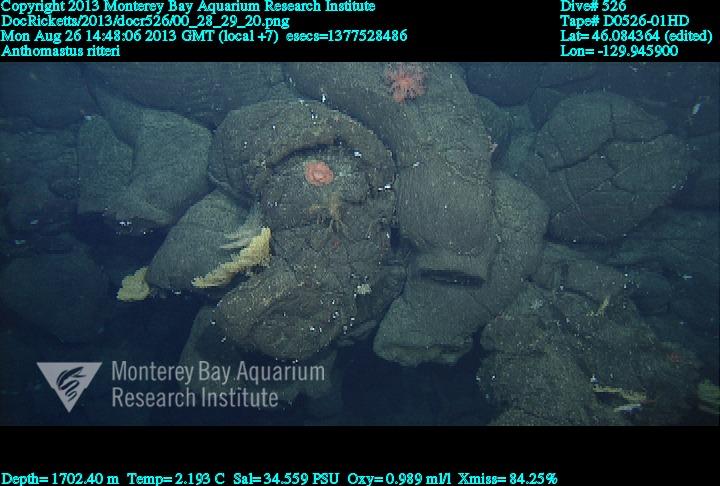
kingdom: Animalia
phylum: Cnidaria
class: Anthozoa
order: Scleralcyonacea
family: Coralliidae
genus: Heteropolypus
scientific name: Heteropolypus ritteri
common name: Ritter's soft coral
